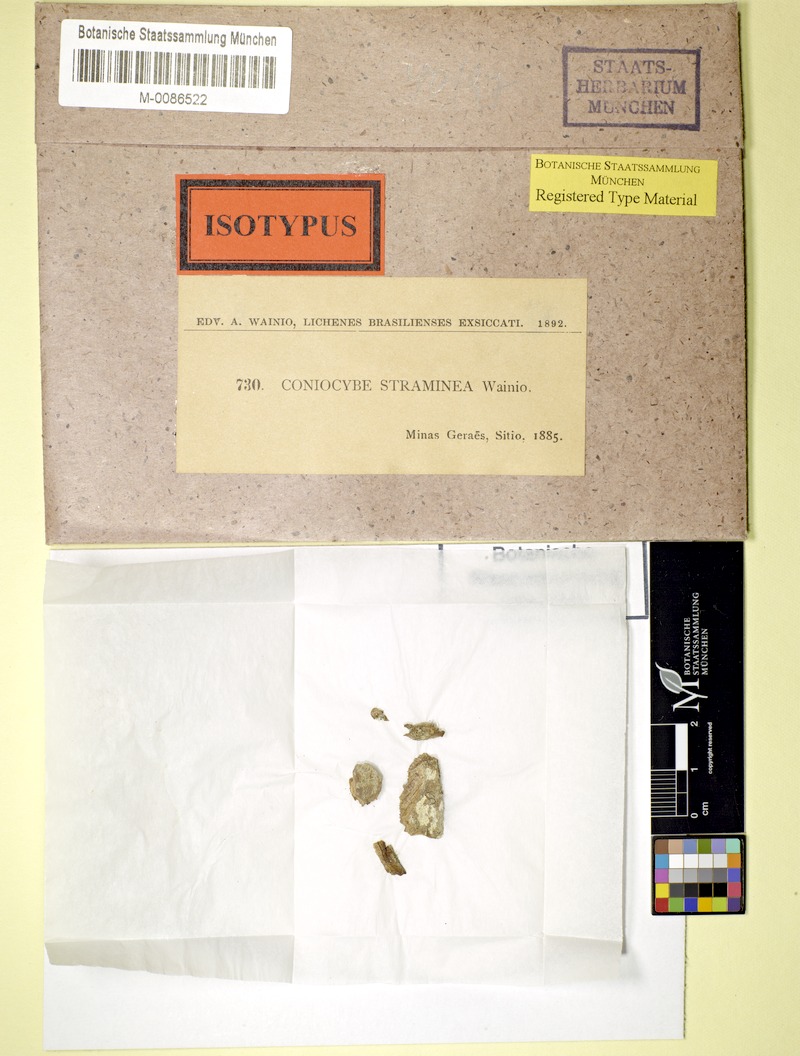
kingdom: Fungi
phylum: Ascomycota
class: Coniocybomycetes
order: Coniocybales
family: Coniocybaceae
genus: Coniocybe
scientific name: Coniocybe
